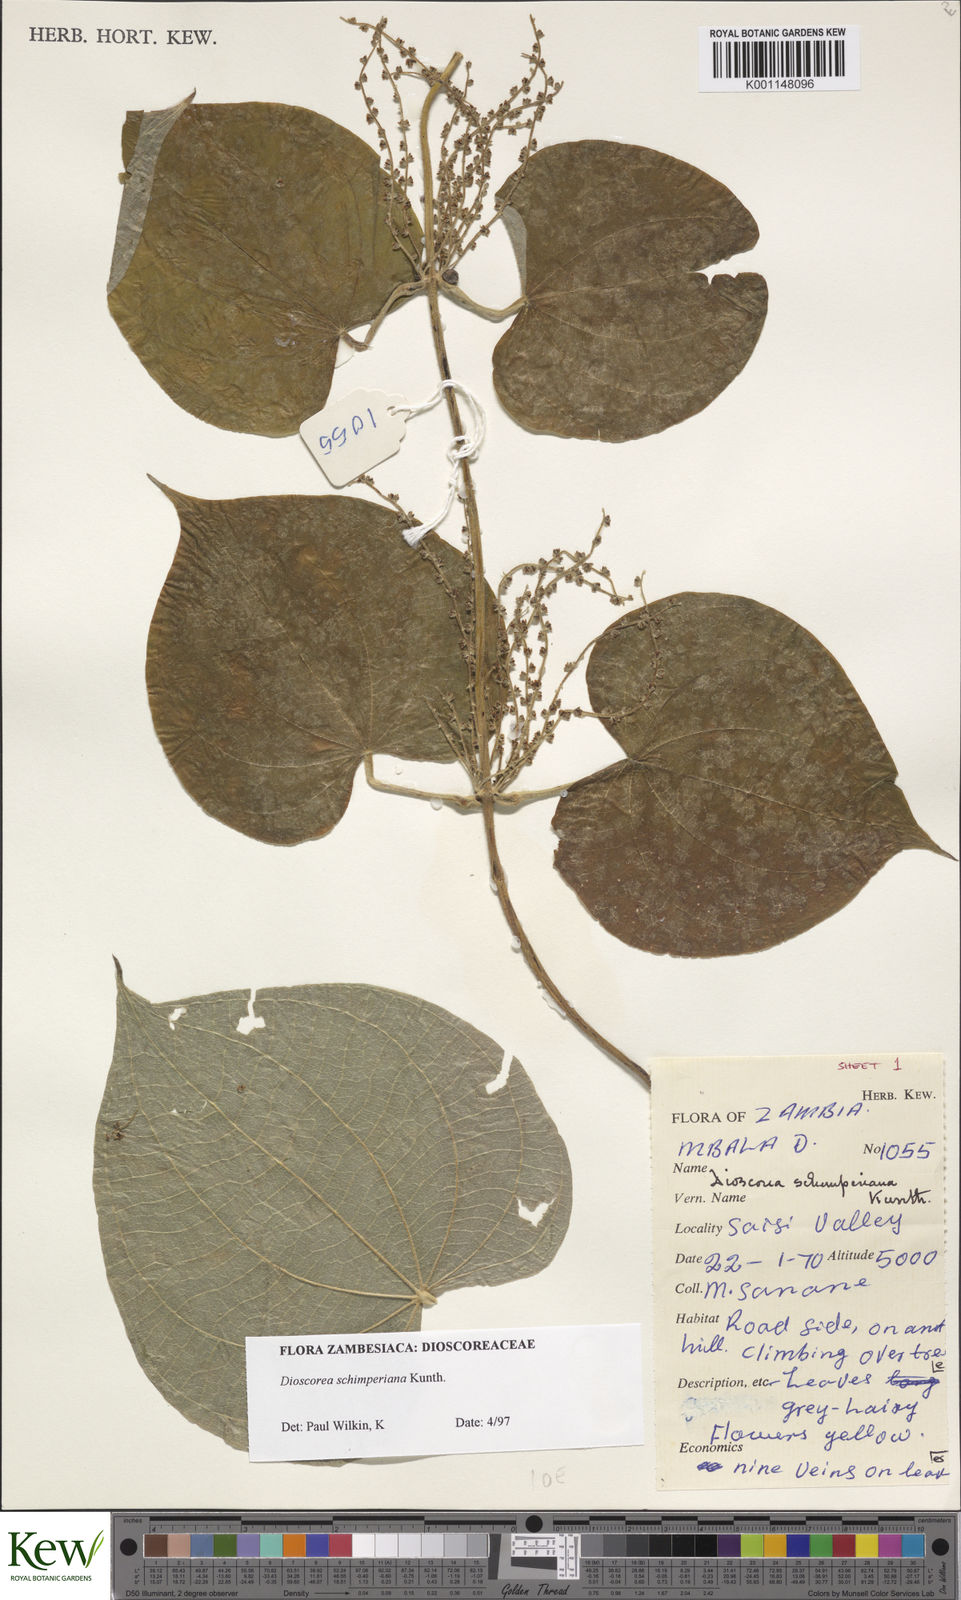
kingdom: Plantae
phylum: Tracheophyta
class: Liliopsida
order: Dioscoreales
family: Dioscoreaceae
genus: Dioscorea
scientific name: Dioscorea schimperiana
